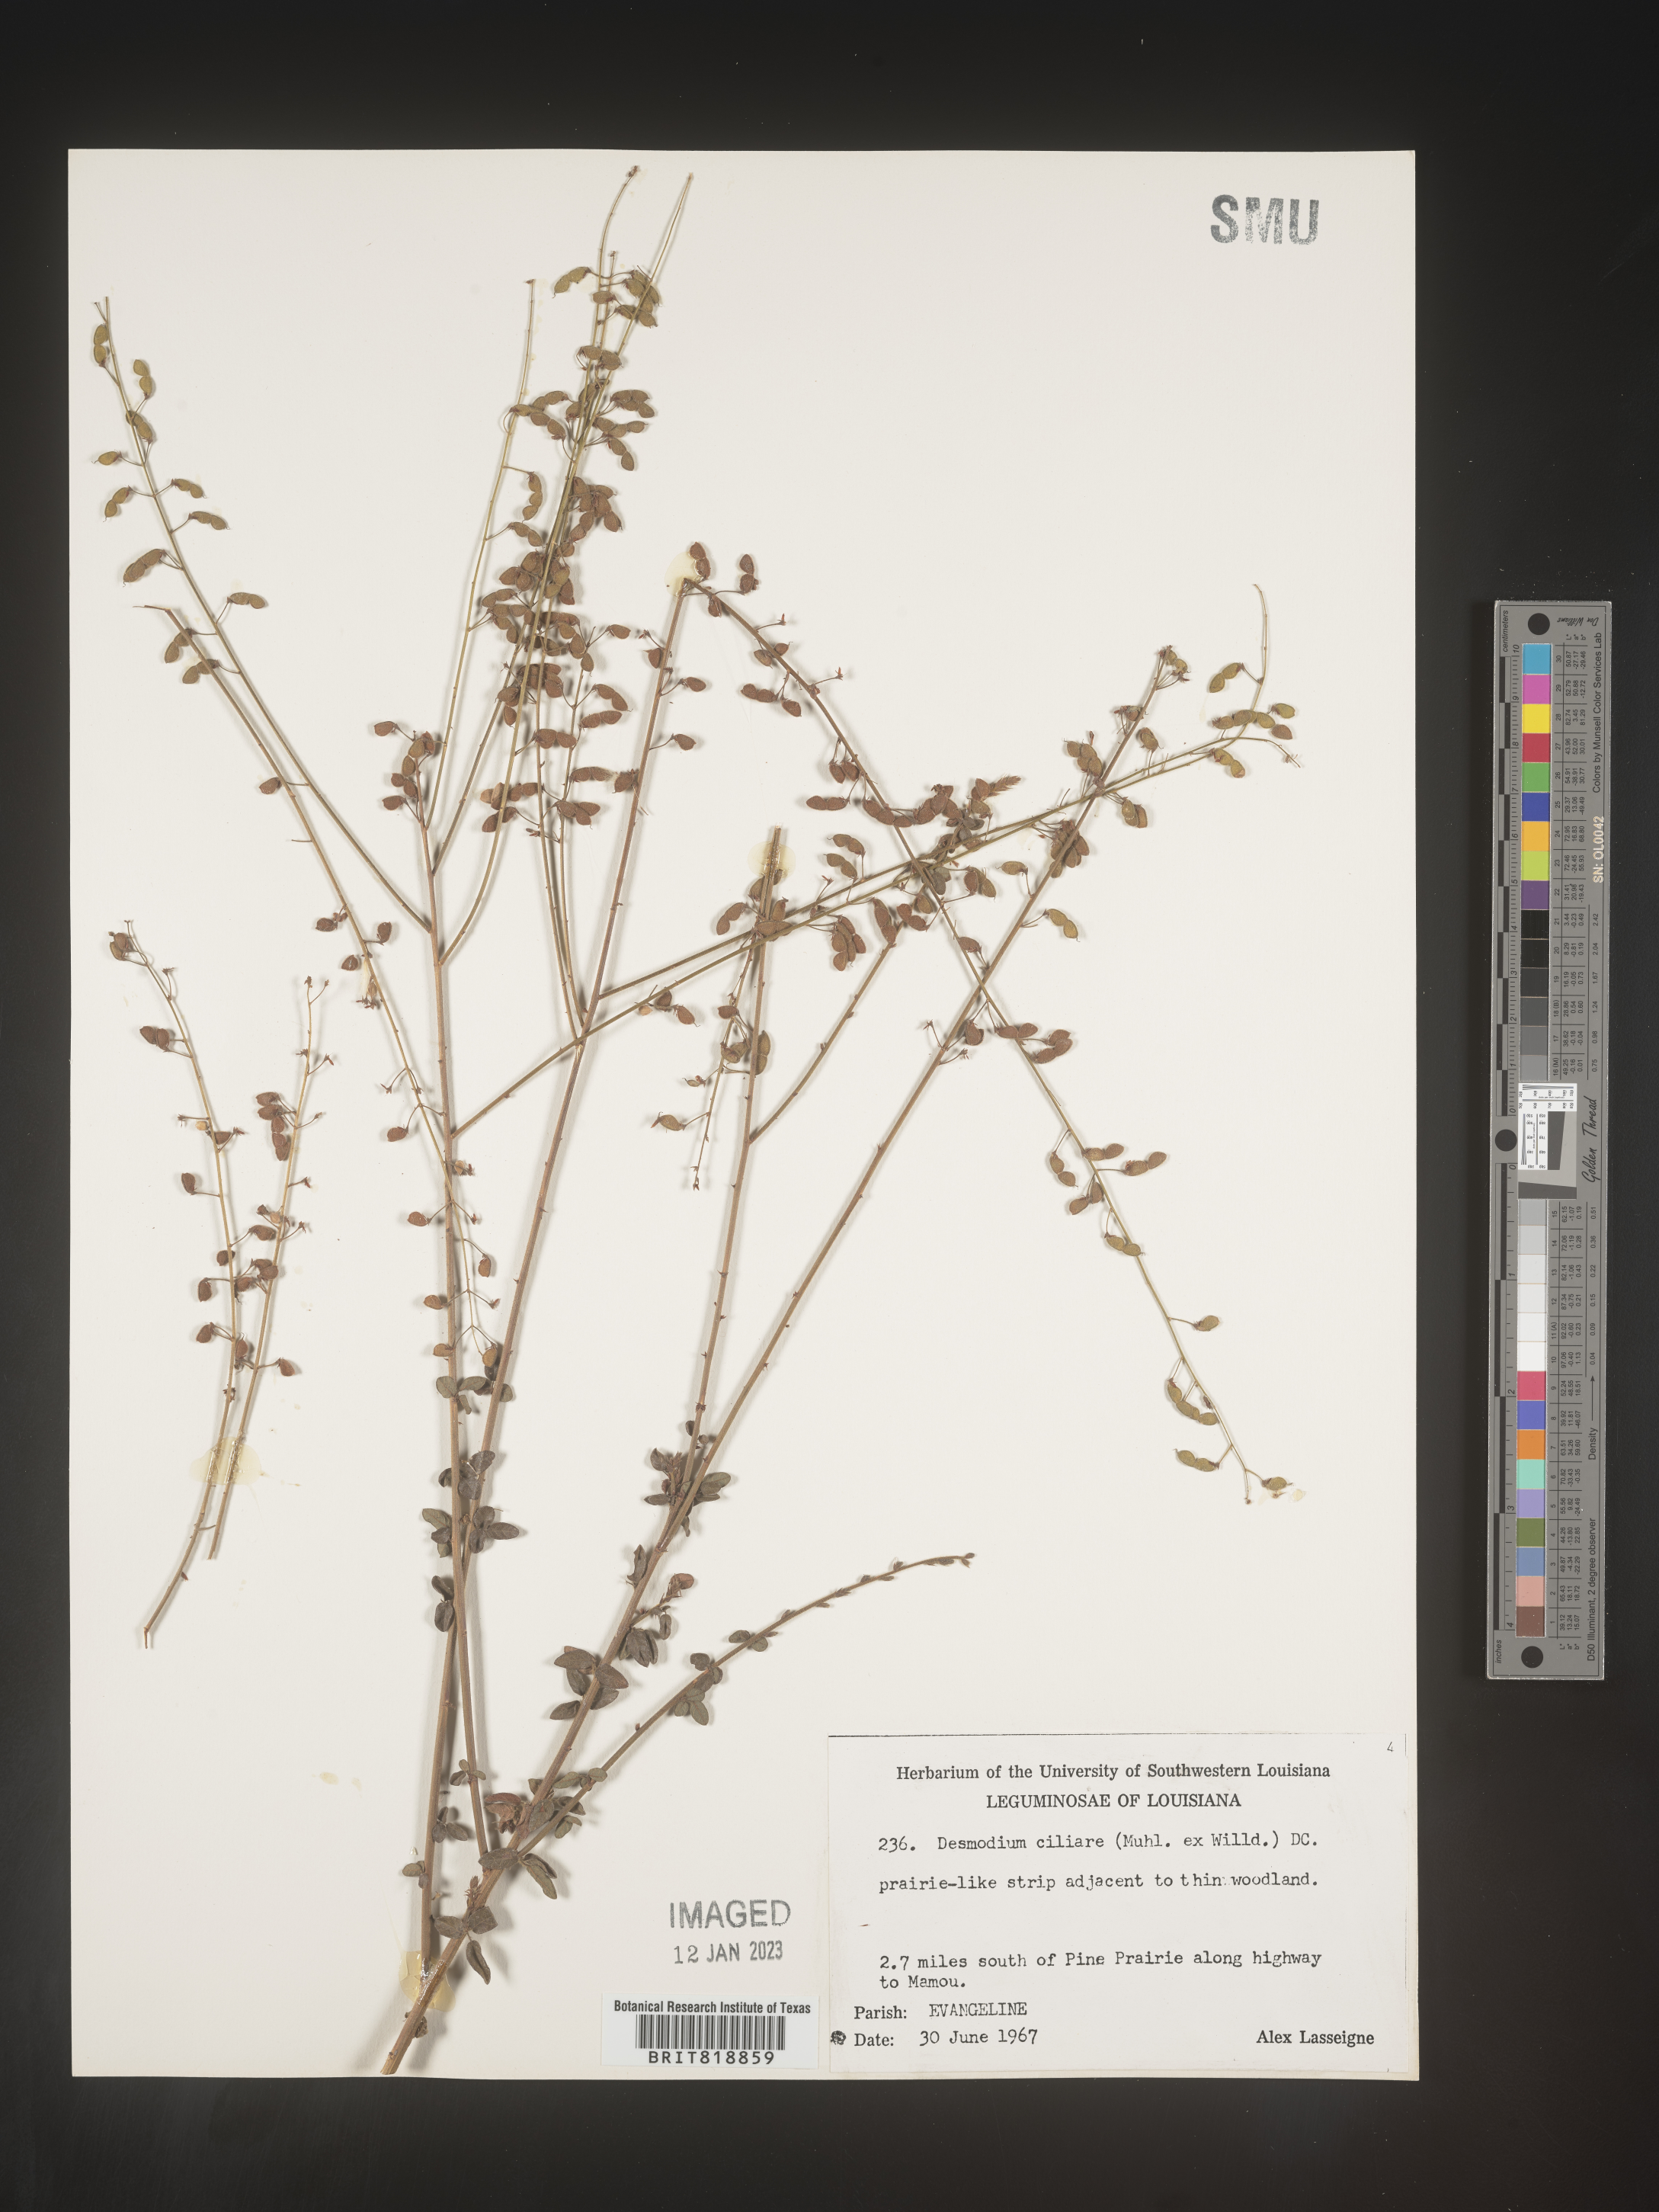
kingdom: Plantae
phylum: Tracheophyta
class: Magnoliopsida
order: Fabales
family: Fabaceae
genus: Desmodium
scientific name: Desmodium ciliare
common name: Hairy small-leaf ticktrefoil
